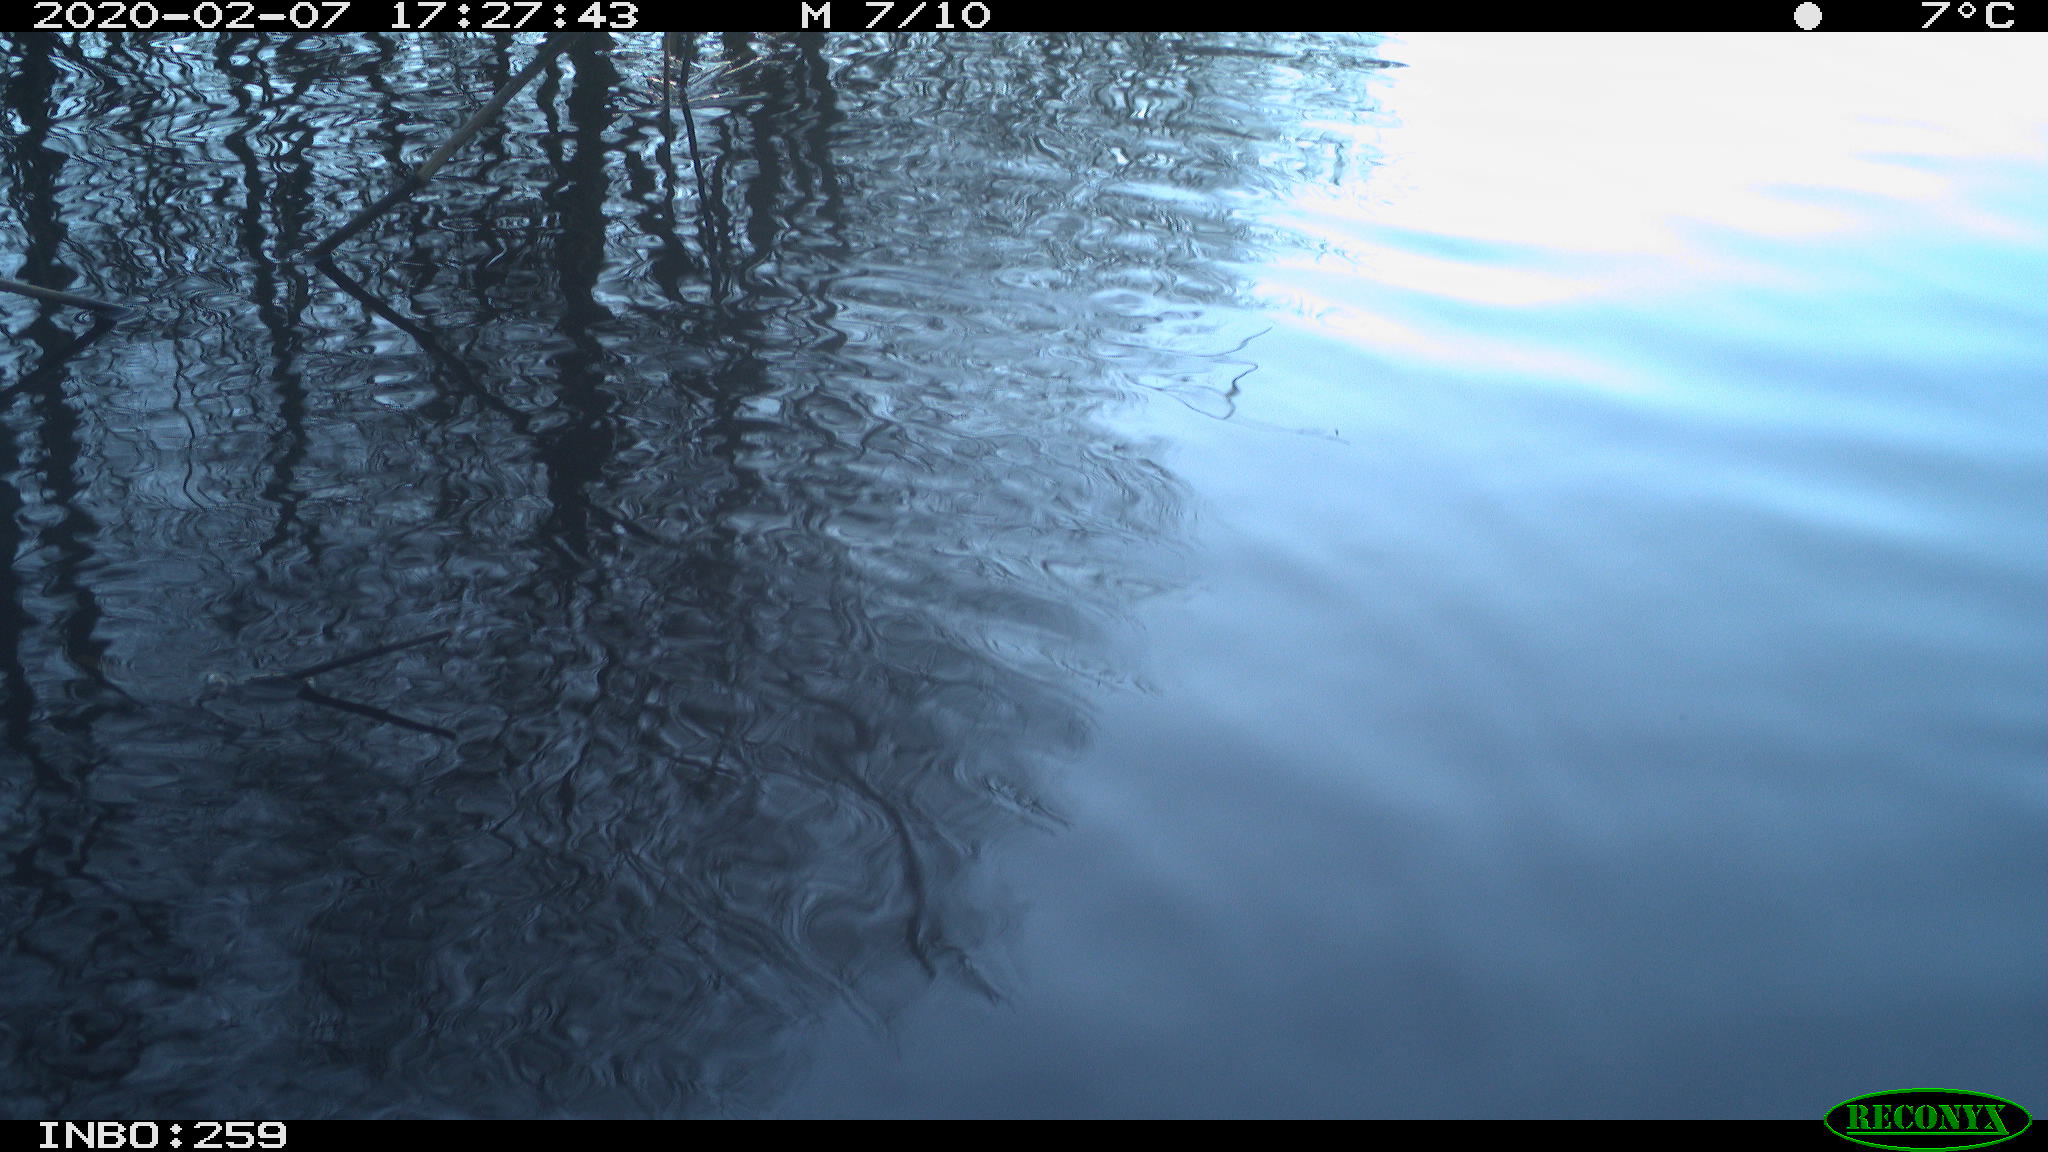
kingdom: Animalia
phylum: Chordata
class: Aves
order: Gruiformes
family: Rallidae
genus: Gallinula
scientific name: Gallinula chloropus
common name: Common moorhen
